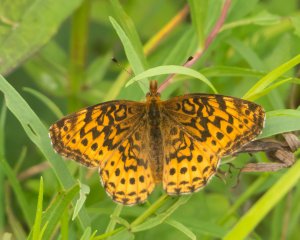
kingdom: Animalia
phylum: Arthropoda
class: Insecta
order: Lepidoptera
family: Nymphalidae
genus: Clossiana
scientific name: Clossiana toddi
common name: Meadow Fritillary
